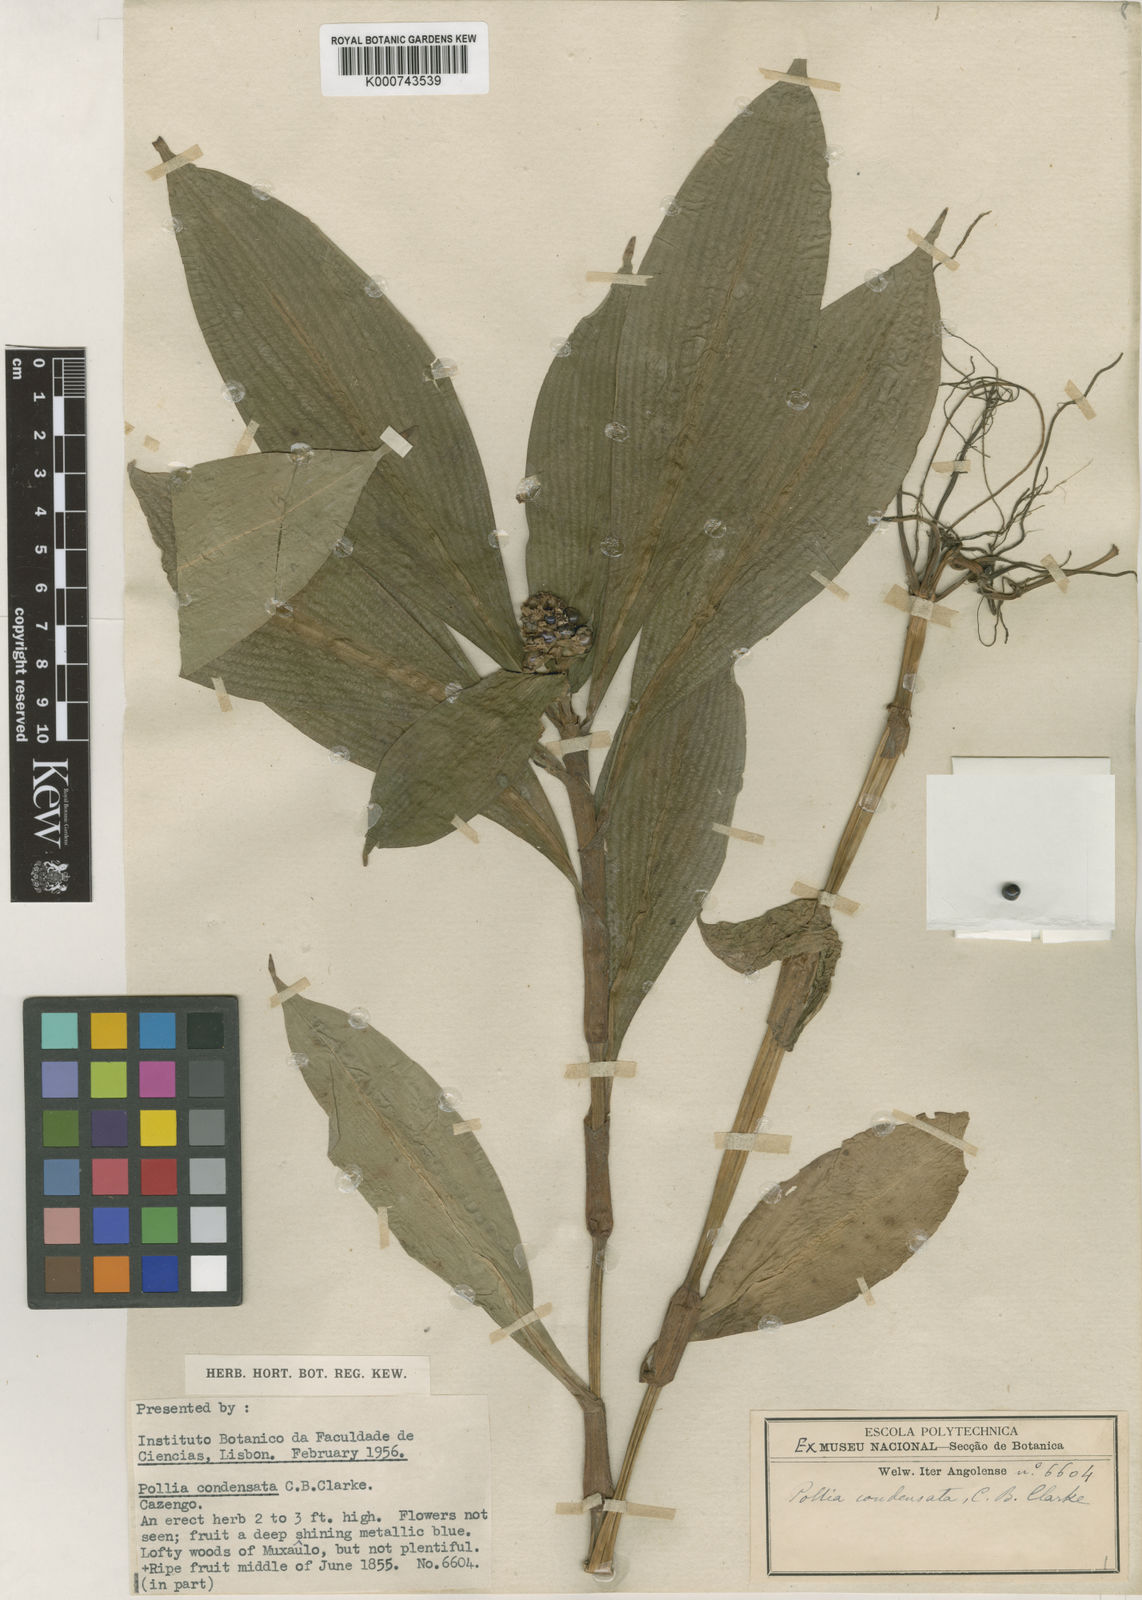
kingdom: Plantae
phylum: Tracheophyta
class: Liliopsida
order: Commelinales
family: Commelinaceae
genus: Pollia
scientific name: Pollia condensata
